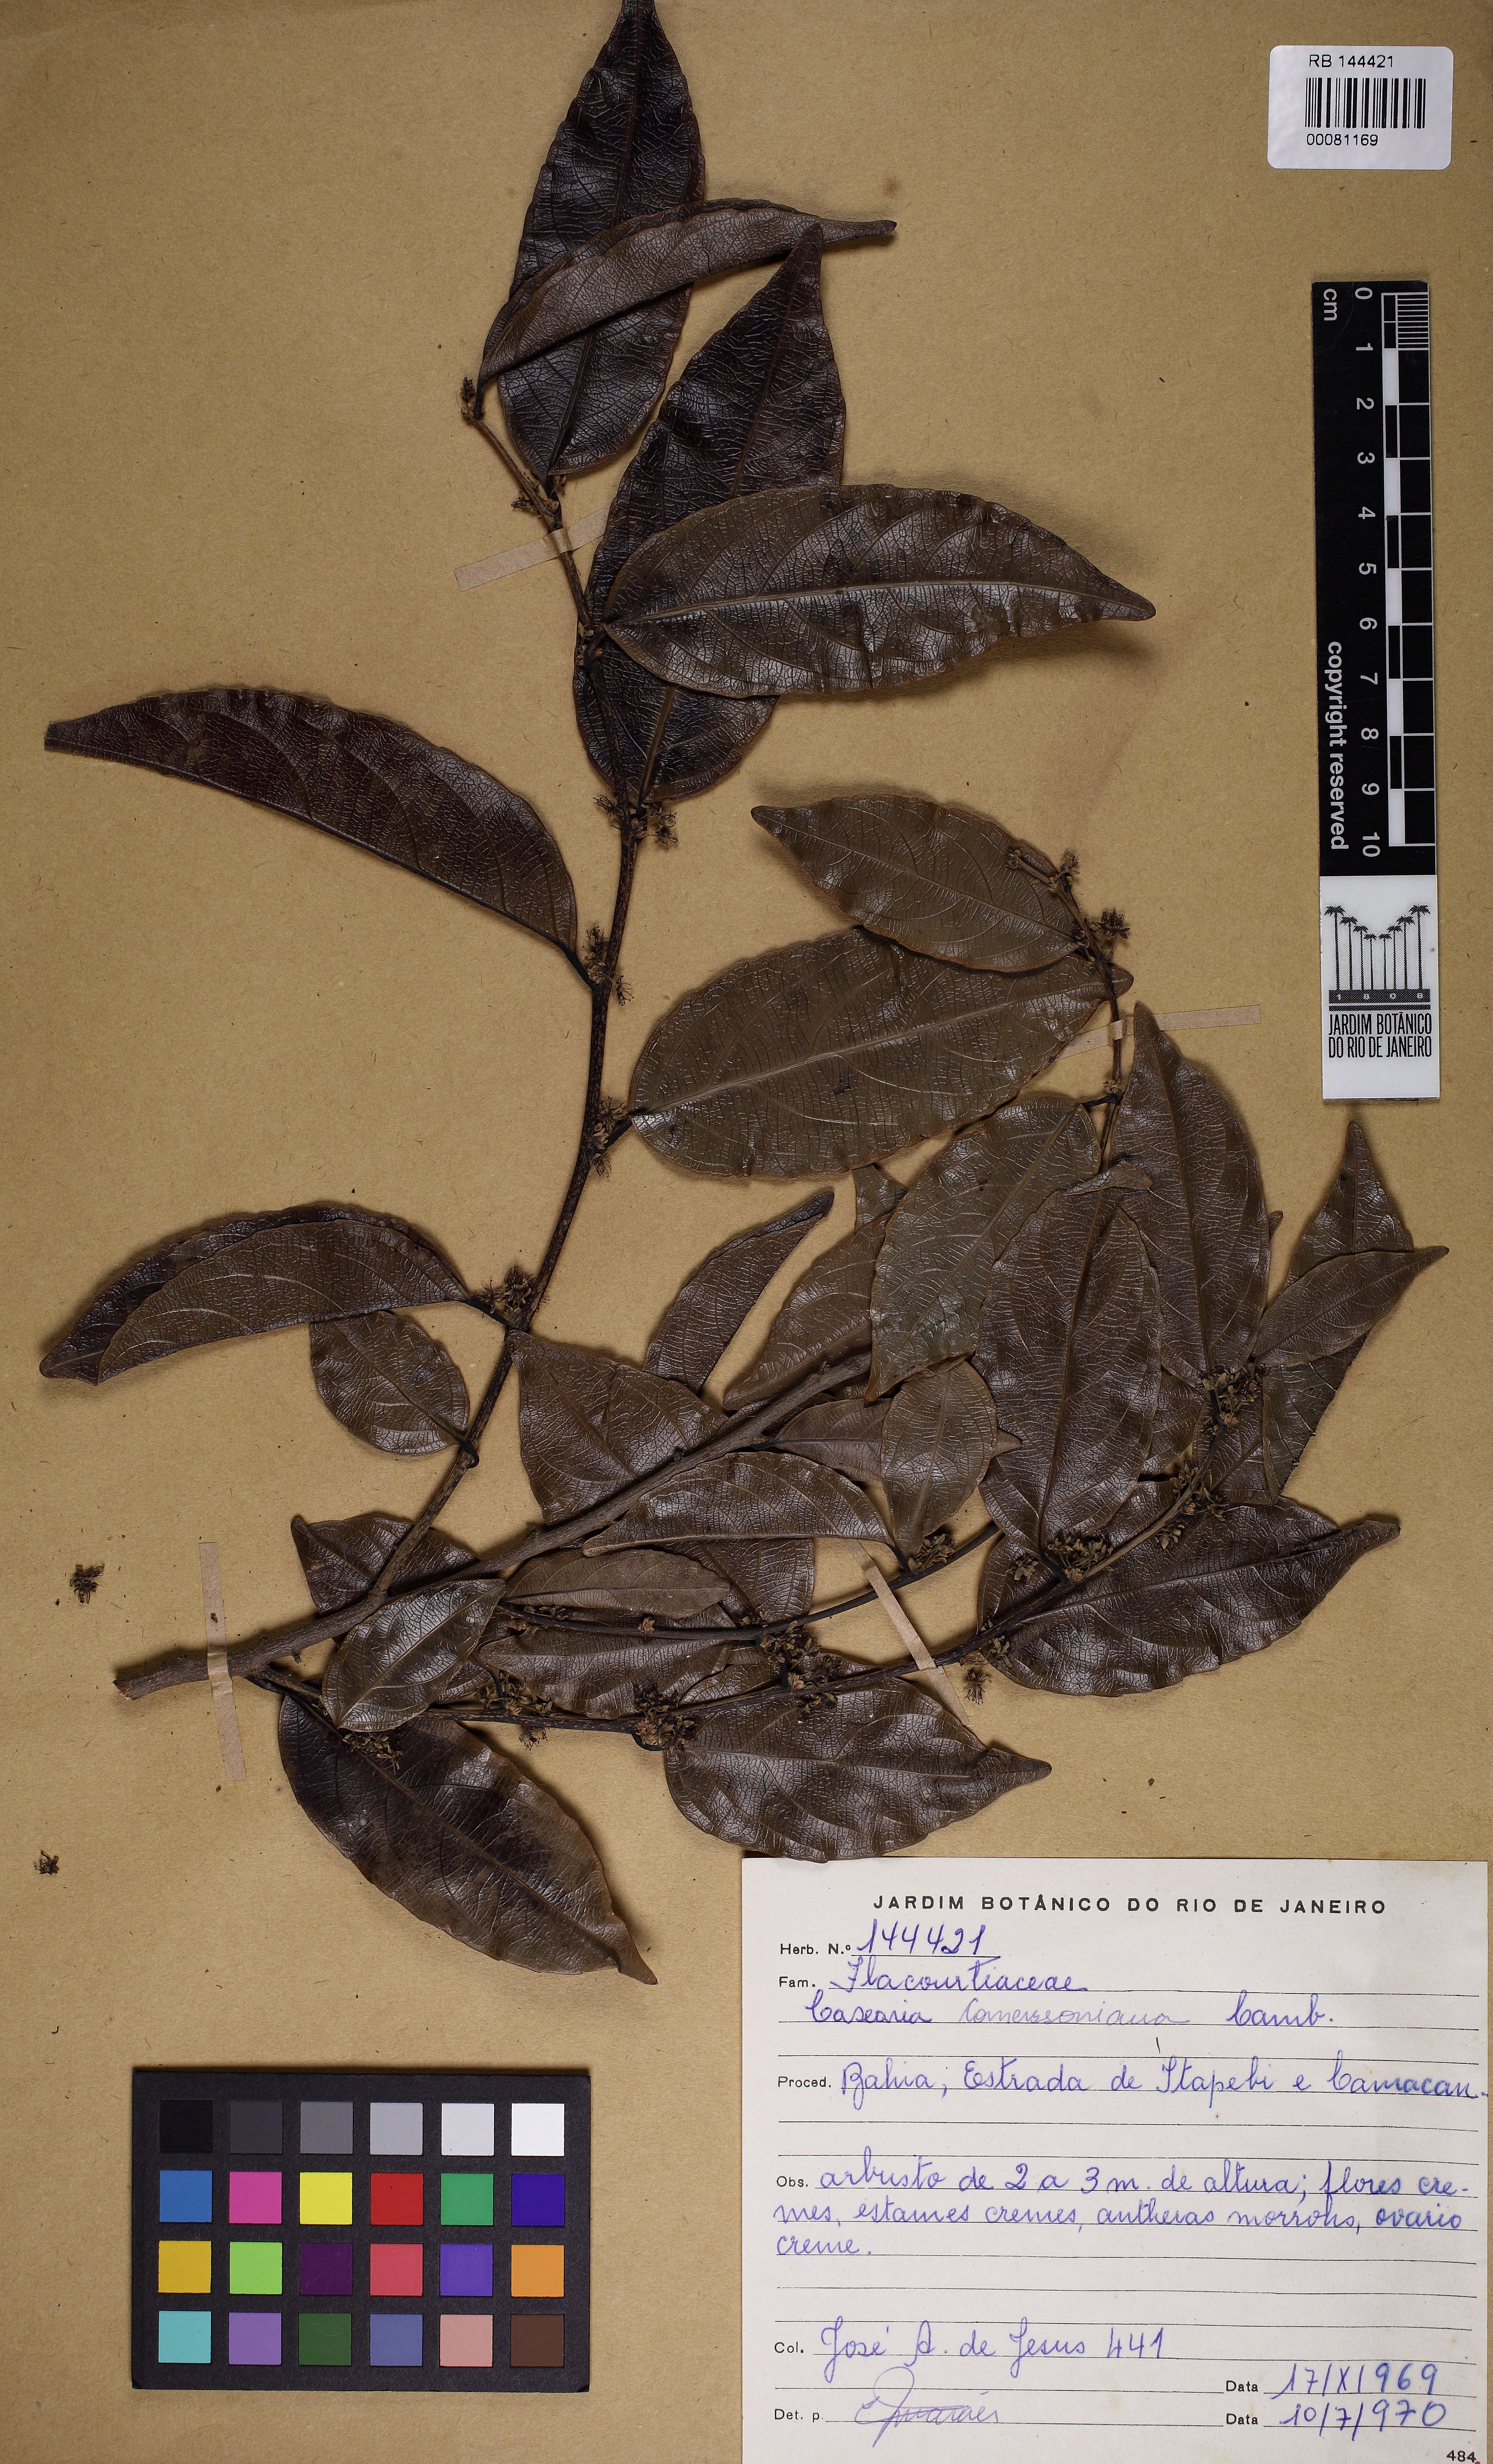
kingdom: Plantae
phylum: Tracheophyta
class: Magnoliopsida
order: Malpighiales
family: Salicaceae
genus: Piparea
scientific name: Piparea dentata
